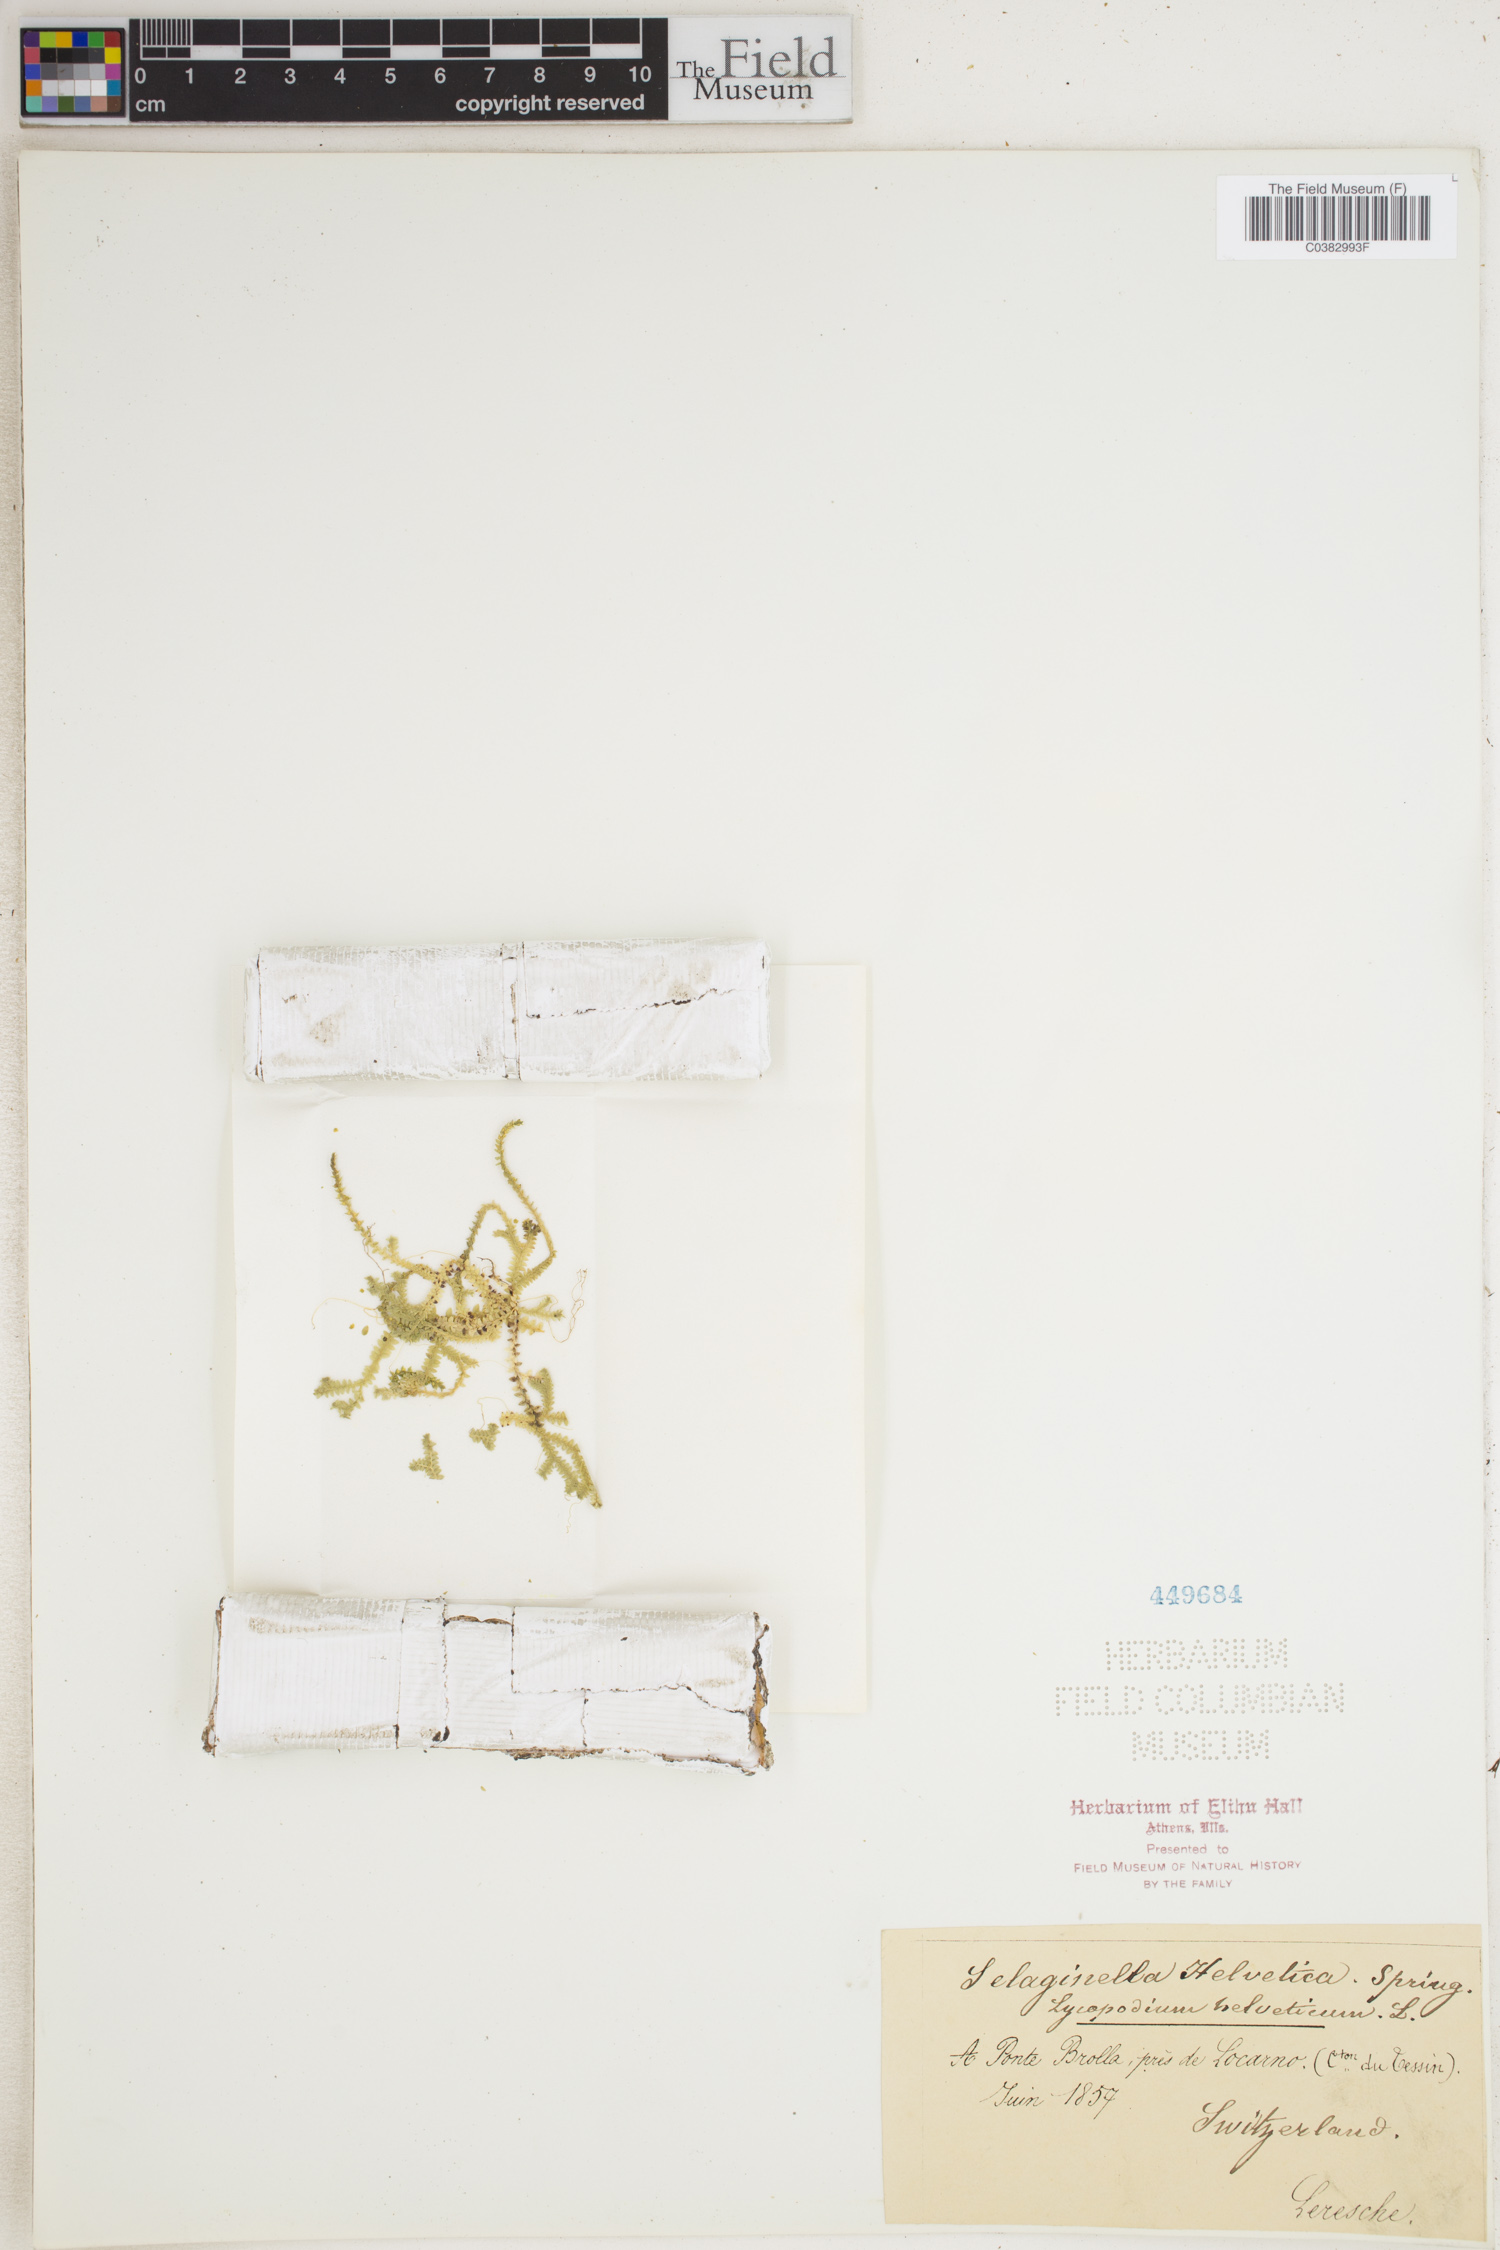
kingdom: Plantae
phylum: Tracheophyta
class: Lycopodiopsida
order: Selaginellales
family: Selaginellaceae
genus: Selaginella
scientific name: Selaginella helvetica
